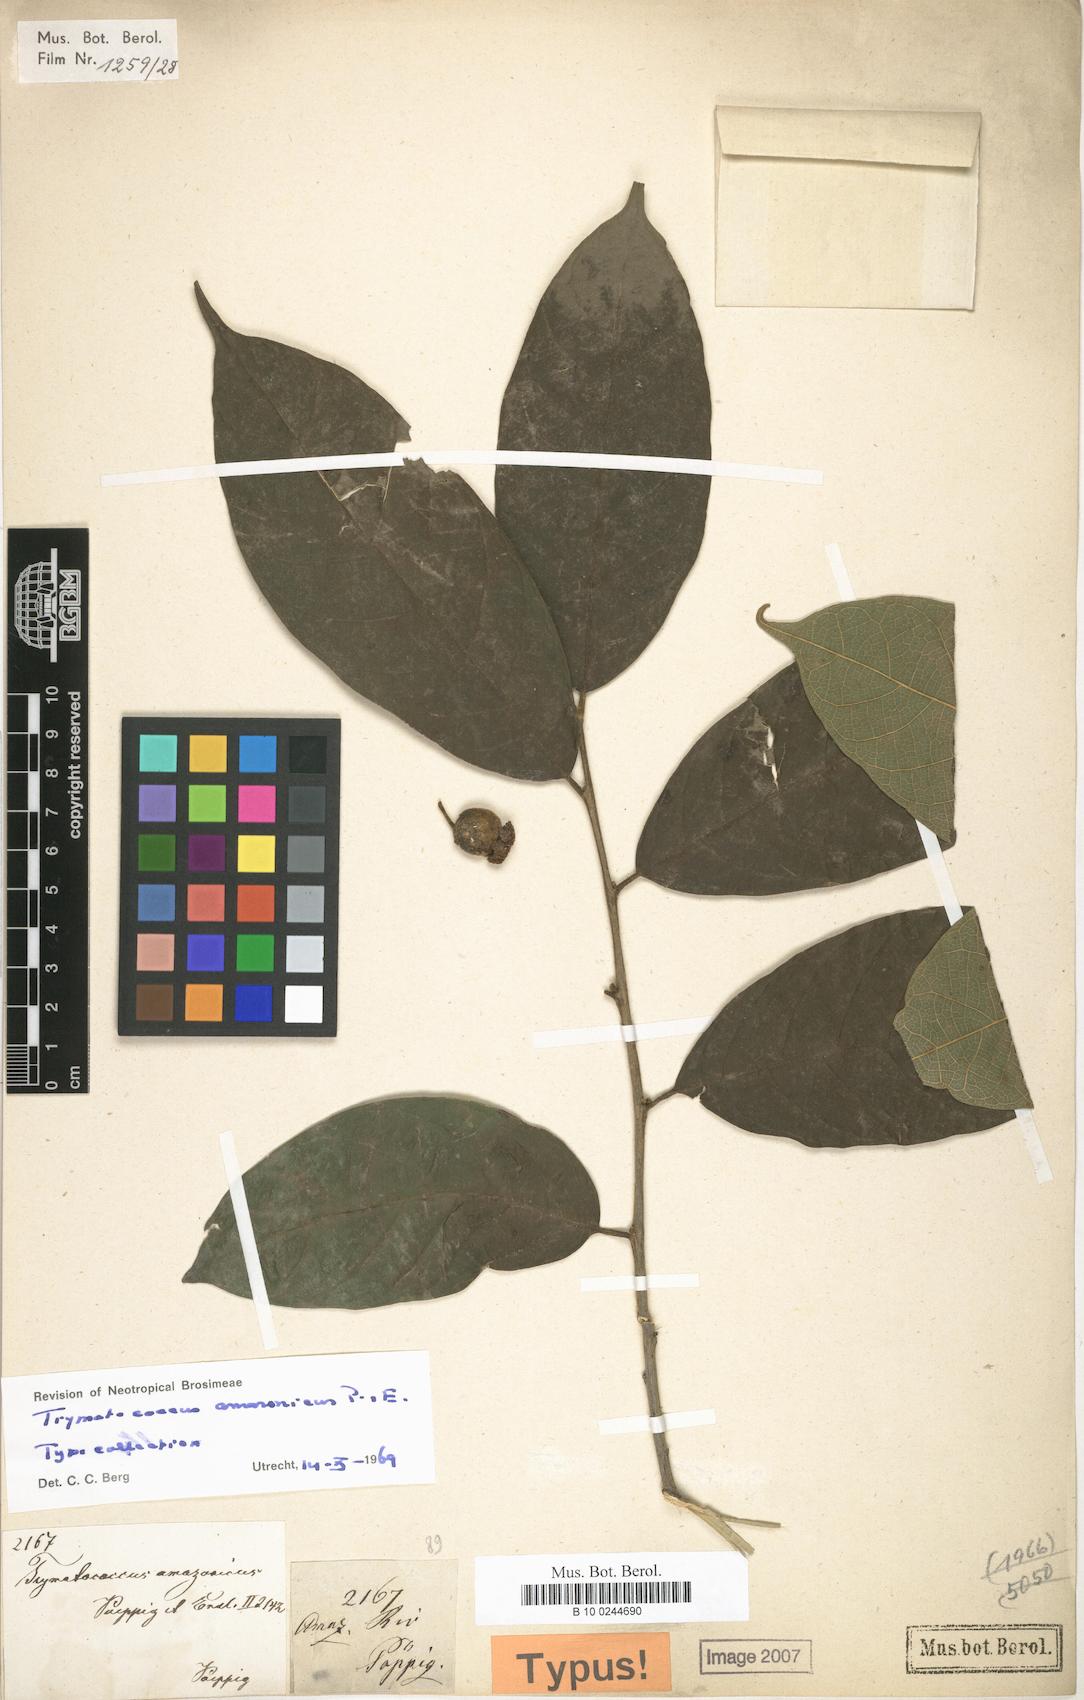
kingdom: Plantae
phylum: Tracheophyta
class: Magnoliopsida
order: Rosales
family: Moraceae
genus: Brosimum
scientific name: Brosimum amazonicum
